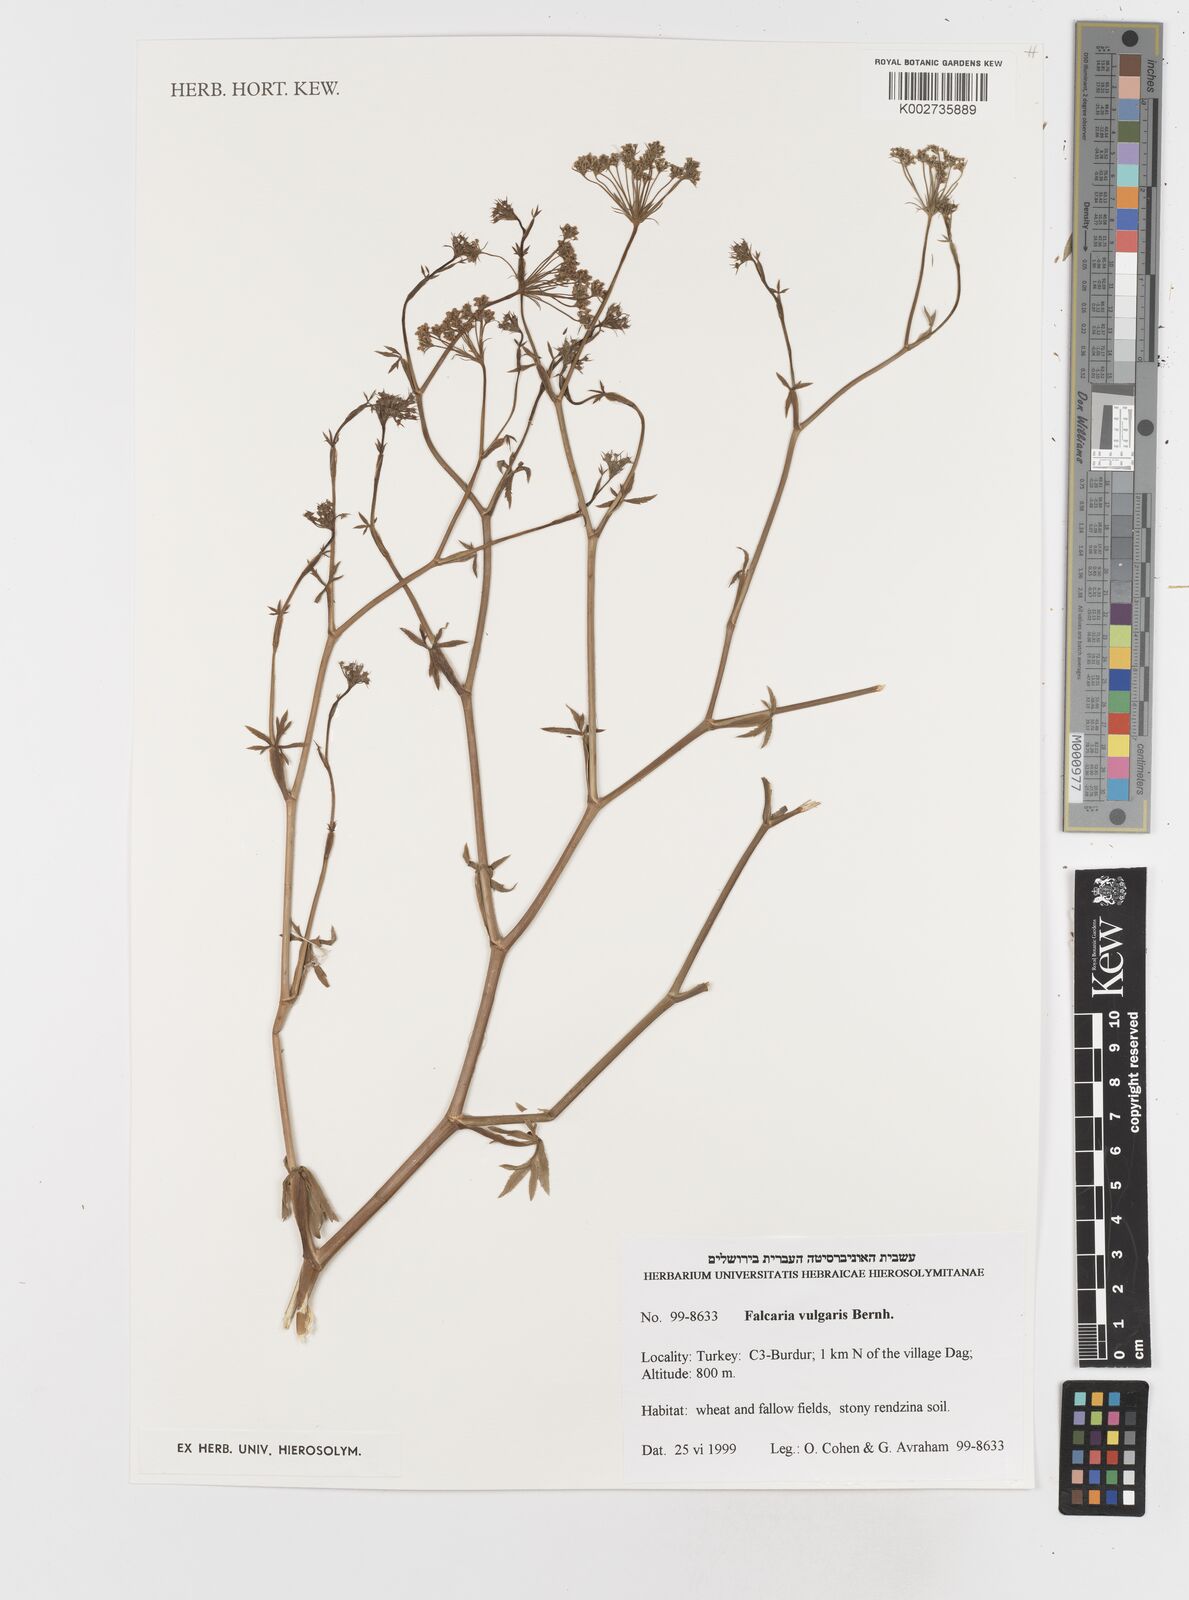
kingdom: Plantae
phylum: Tracheophyta
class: Magnoliopsida
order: Apiales
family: Apiaceae
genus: Falcaria
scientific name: Falcaria vulgaris
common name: Longleaf
